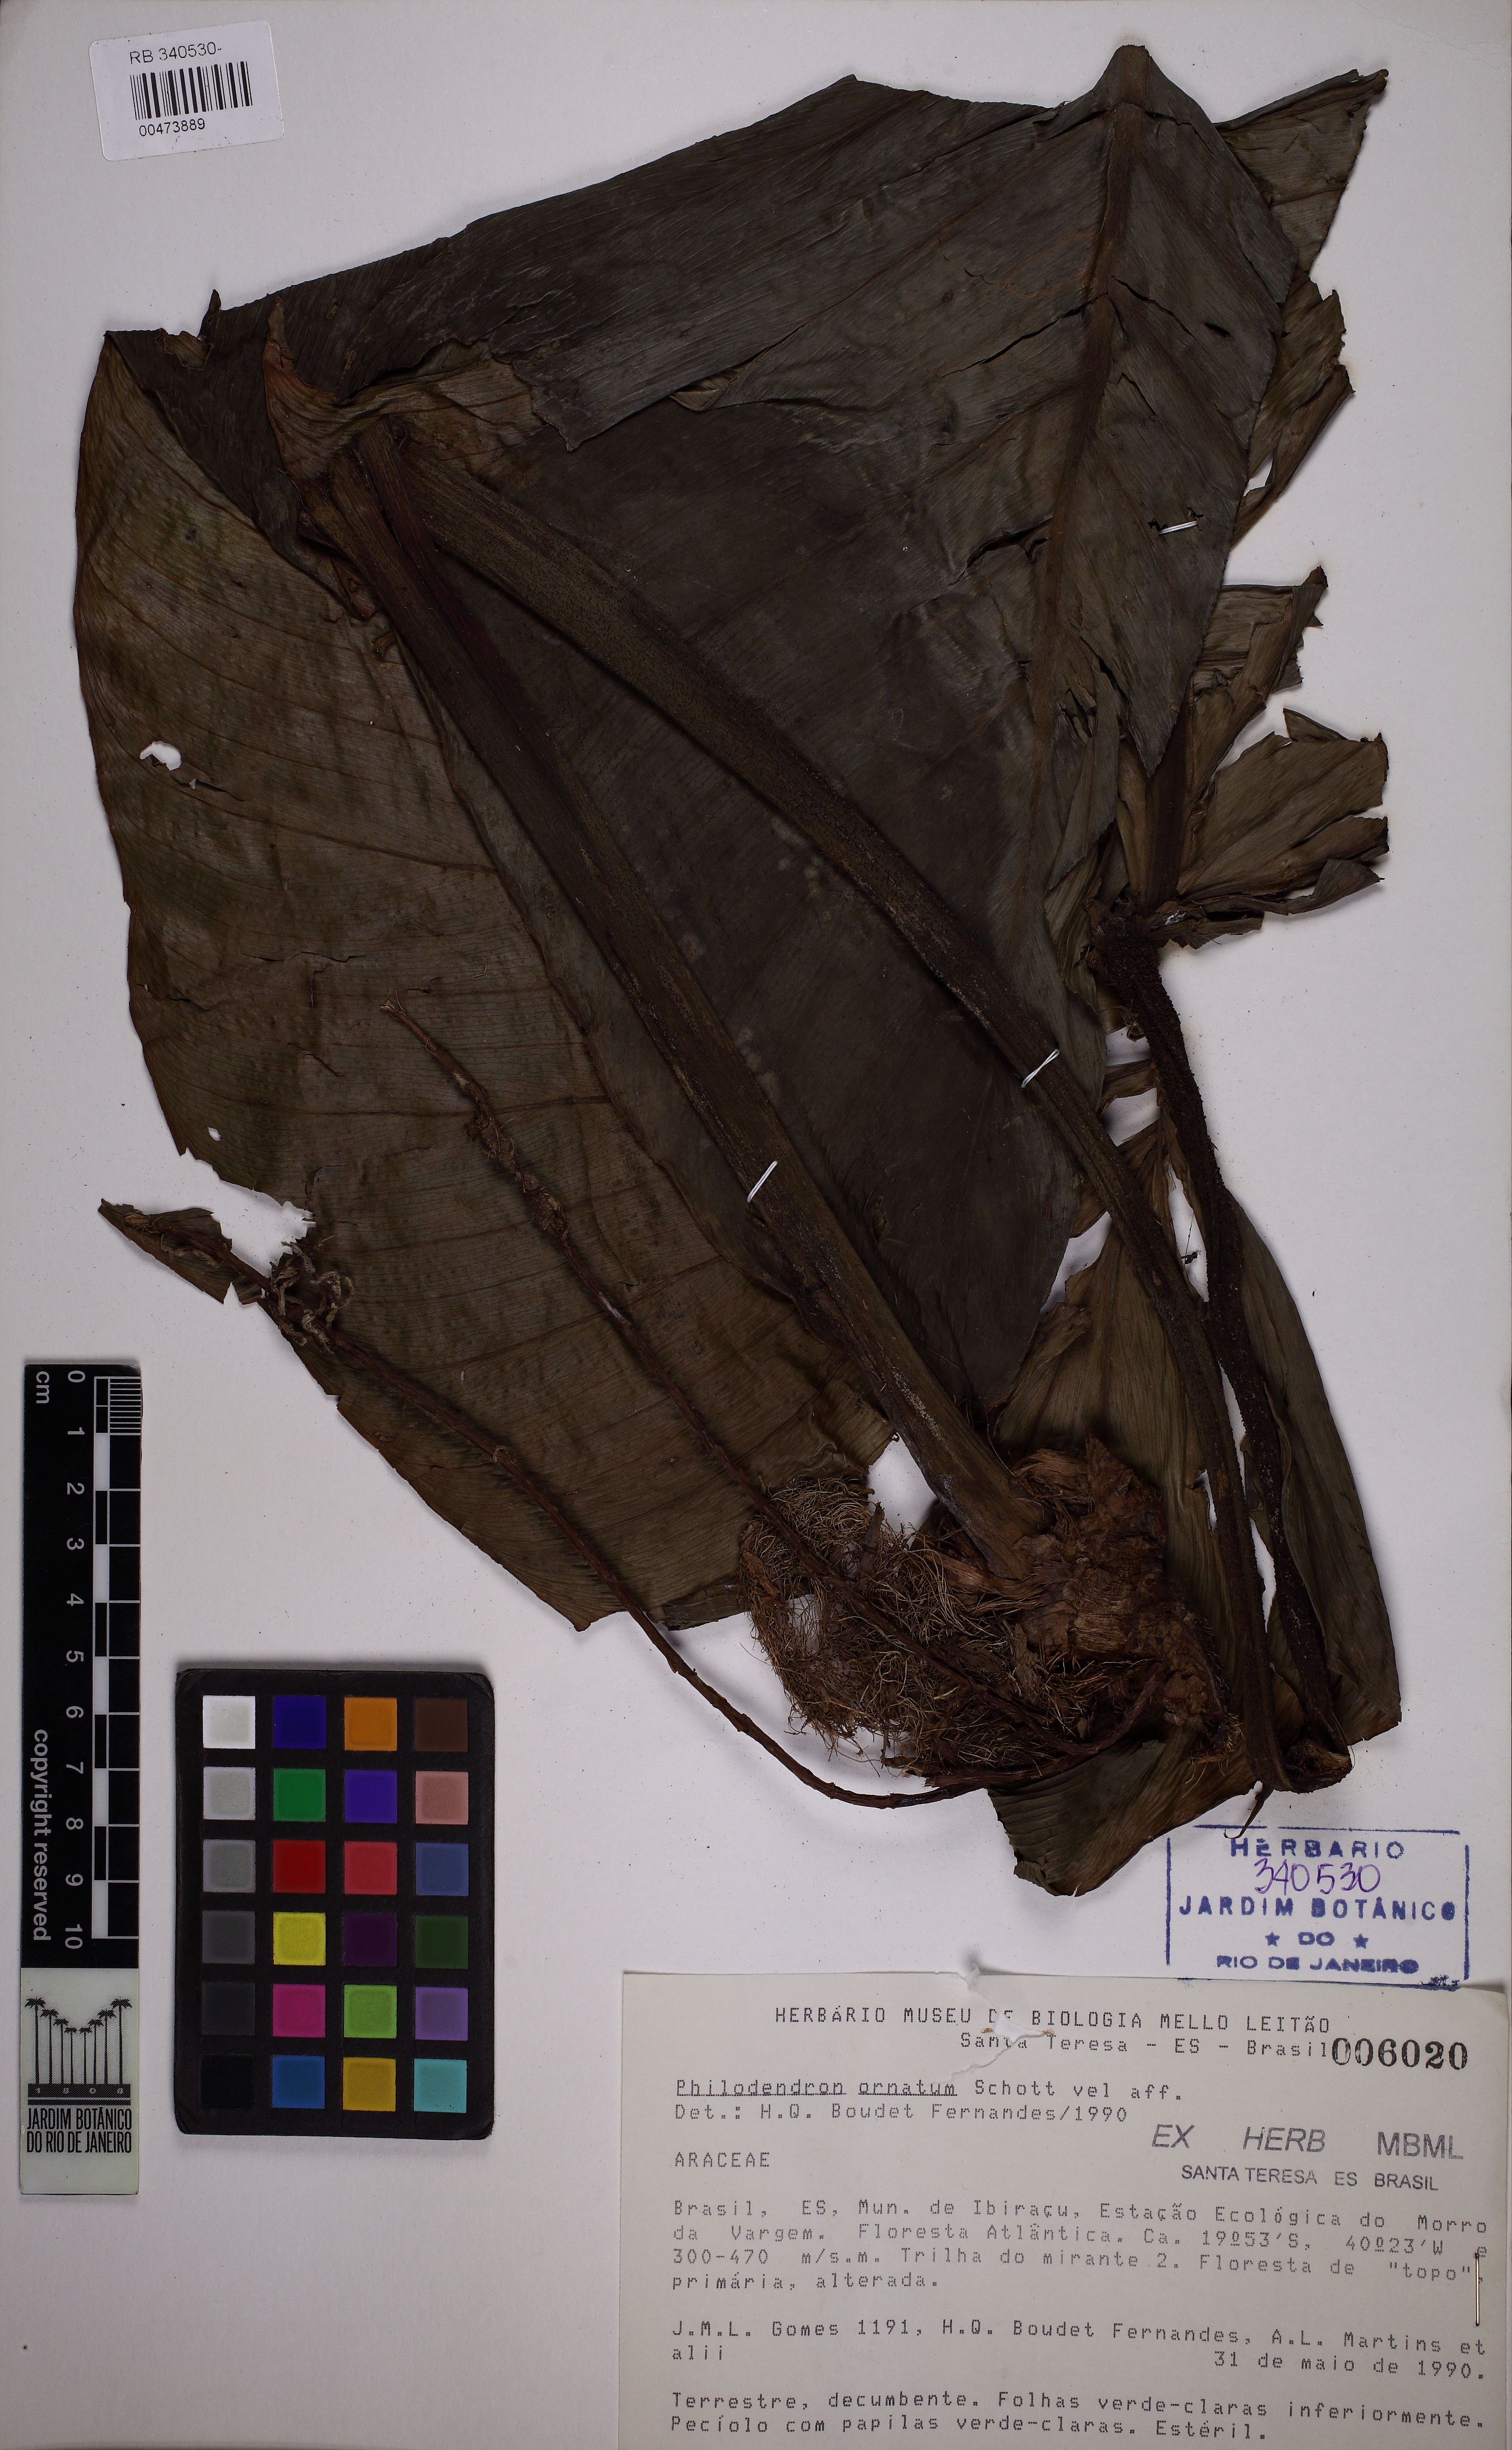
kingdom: Plantae
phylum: Tracheophyta
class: Liliopsida
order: Alismatales
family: Araceae
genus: Philodendron
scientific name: Philodendron ornatum
